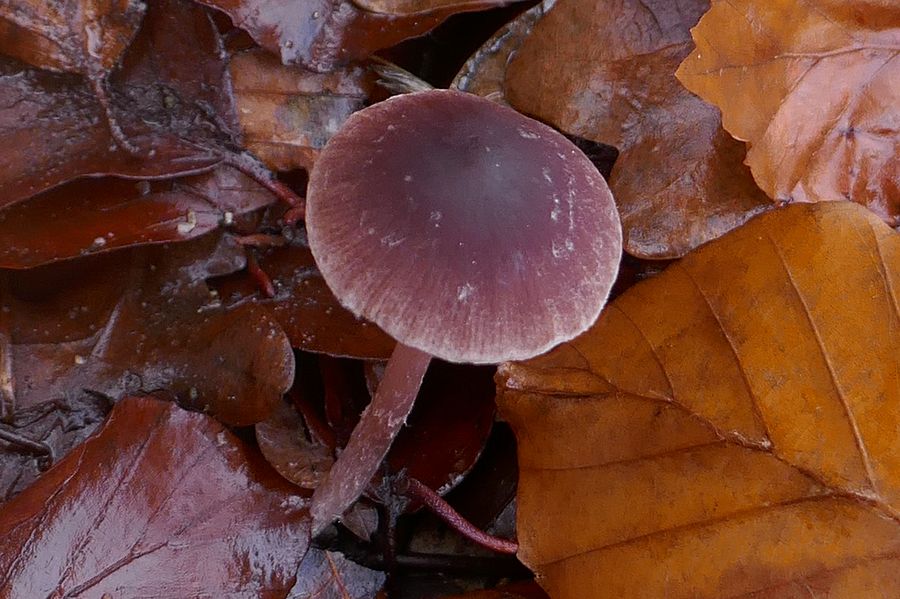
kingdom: Fungi
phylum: Basidiomycota
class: Agaricomycetes
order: Agaricales
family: Psathyrellaceae
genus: Psathyrella
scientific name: Psathyrella bipellis
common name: vinrød mørkhat
